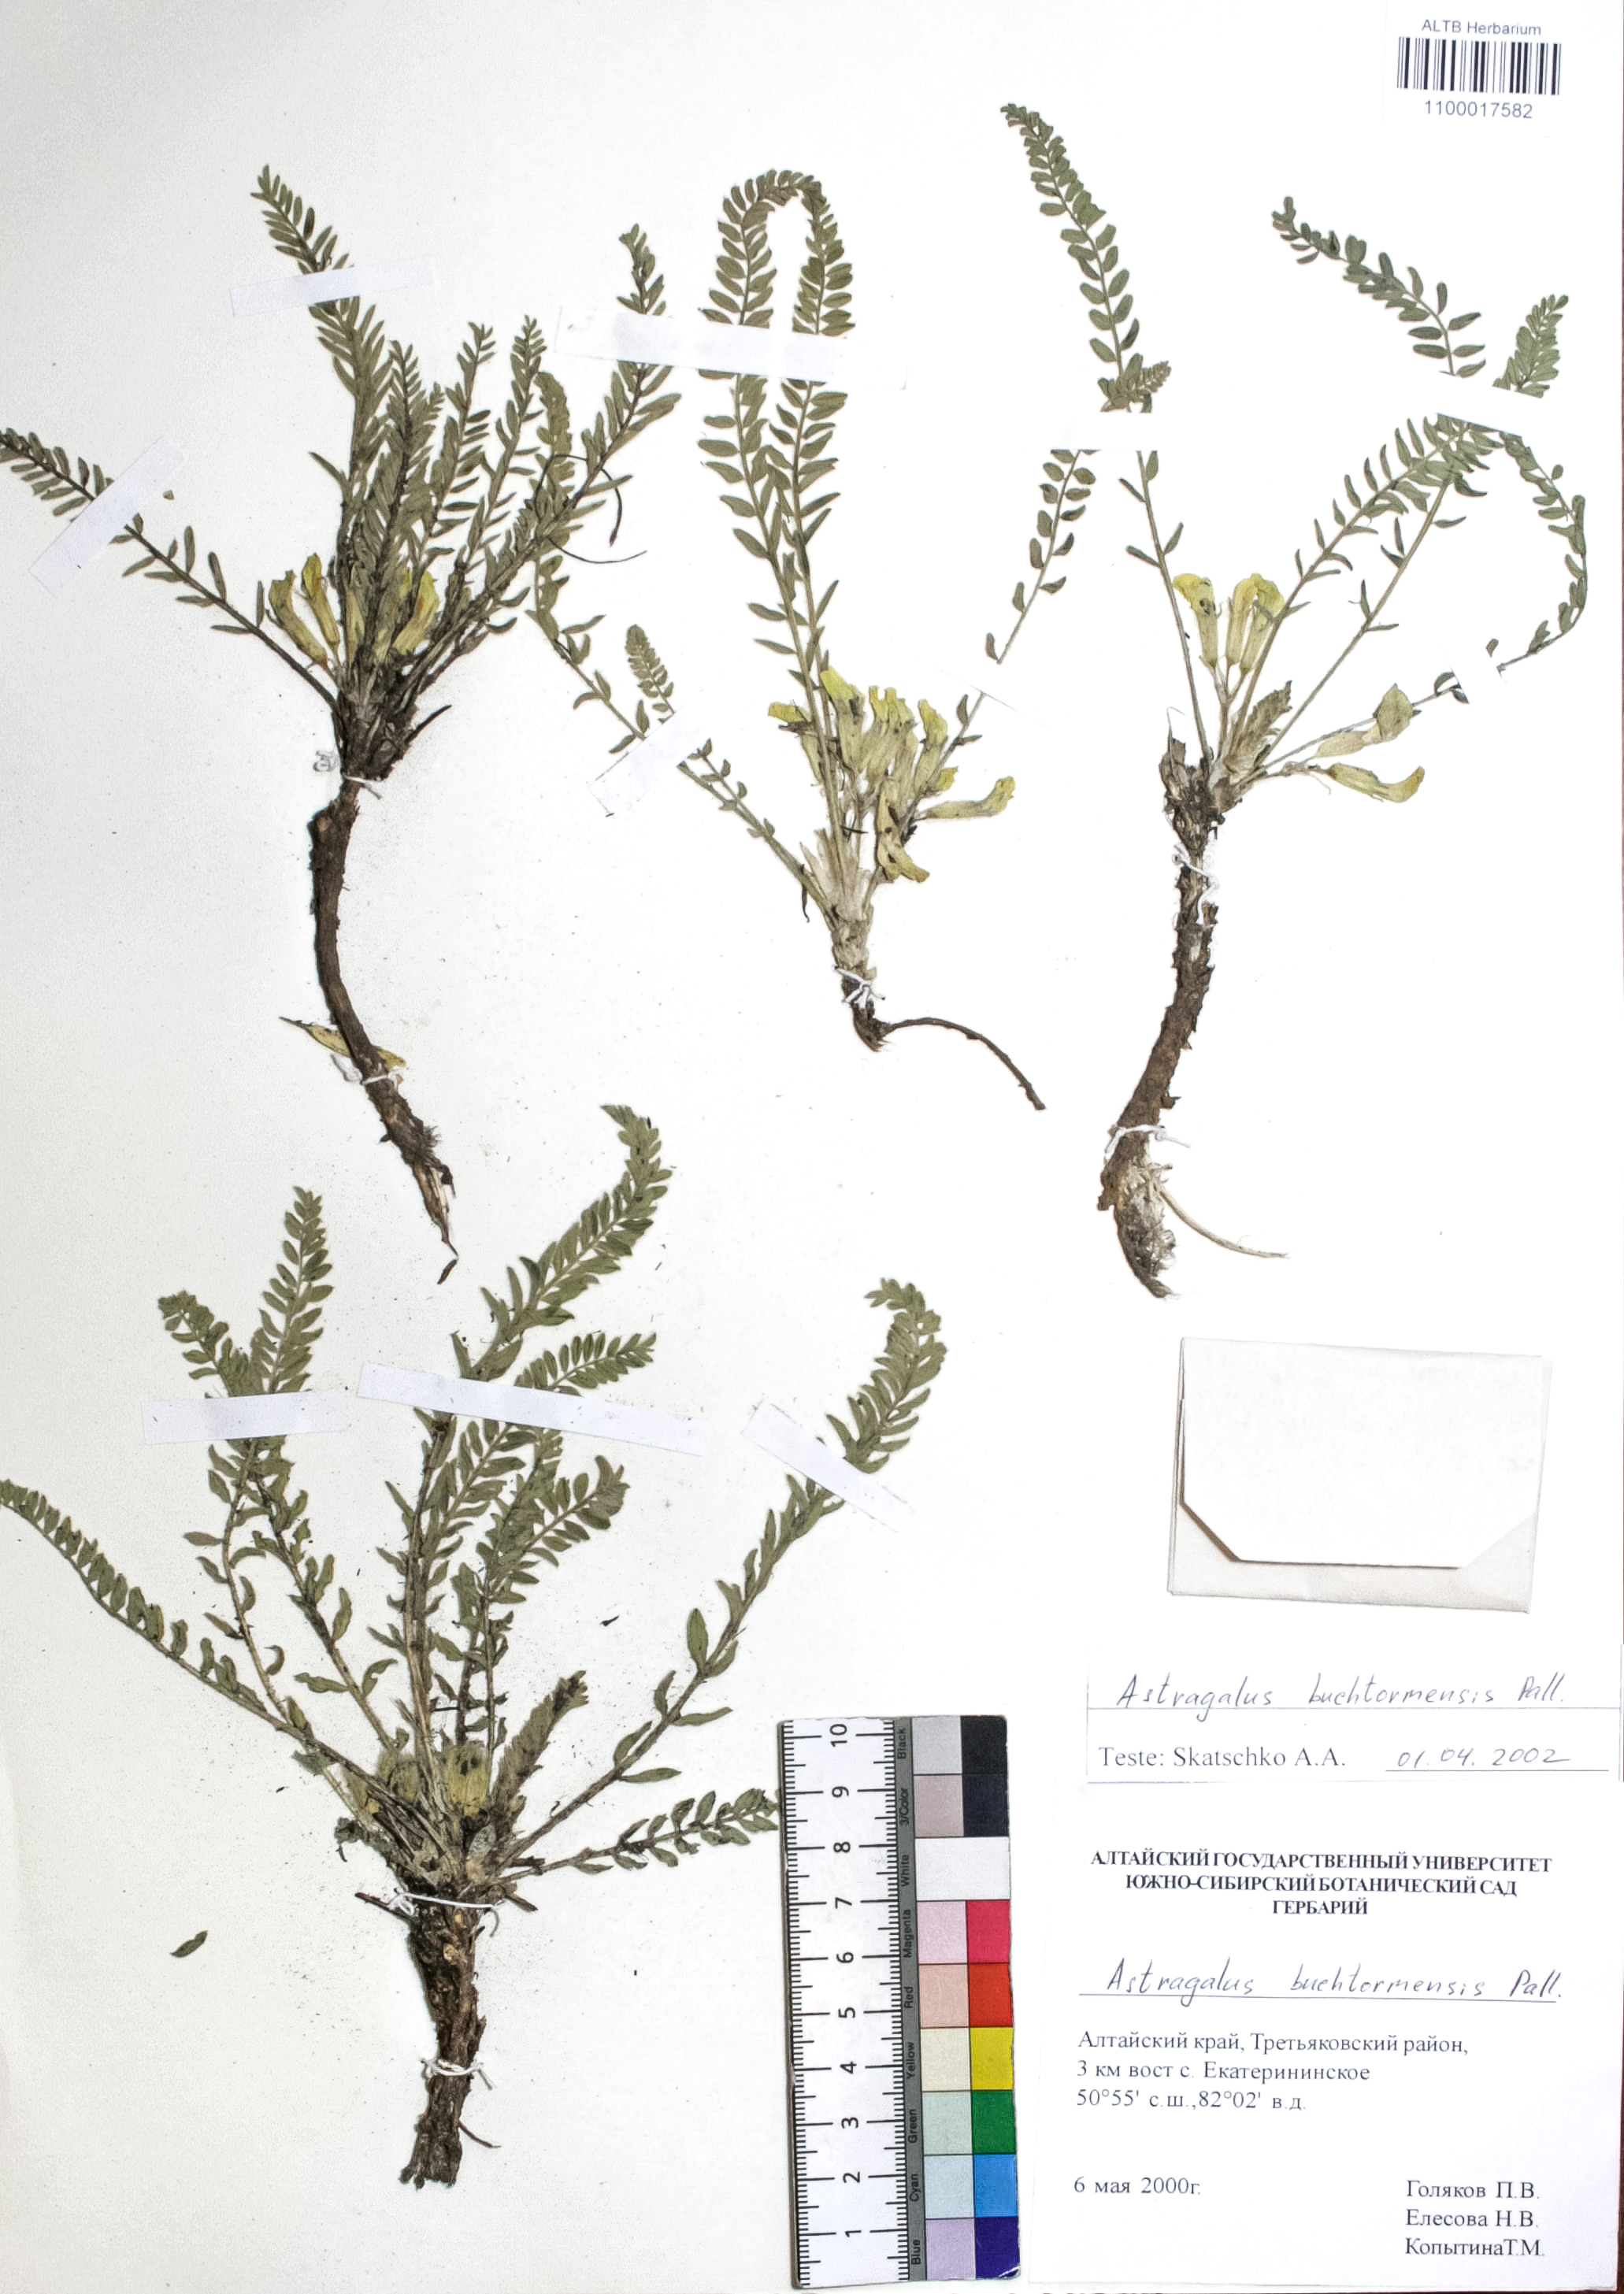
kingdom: Plantae
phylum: Tracheophyta
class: Magnoliopsida
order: Fabales
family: Fabaceae
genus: Astragalus
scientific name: Astragalus buchtormensis
